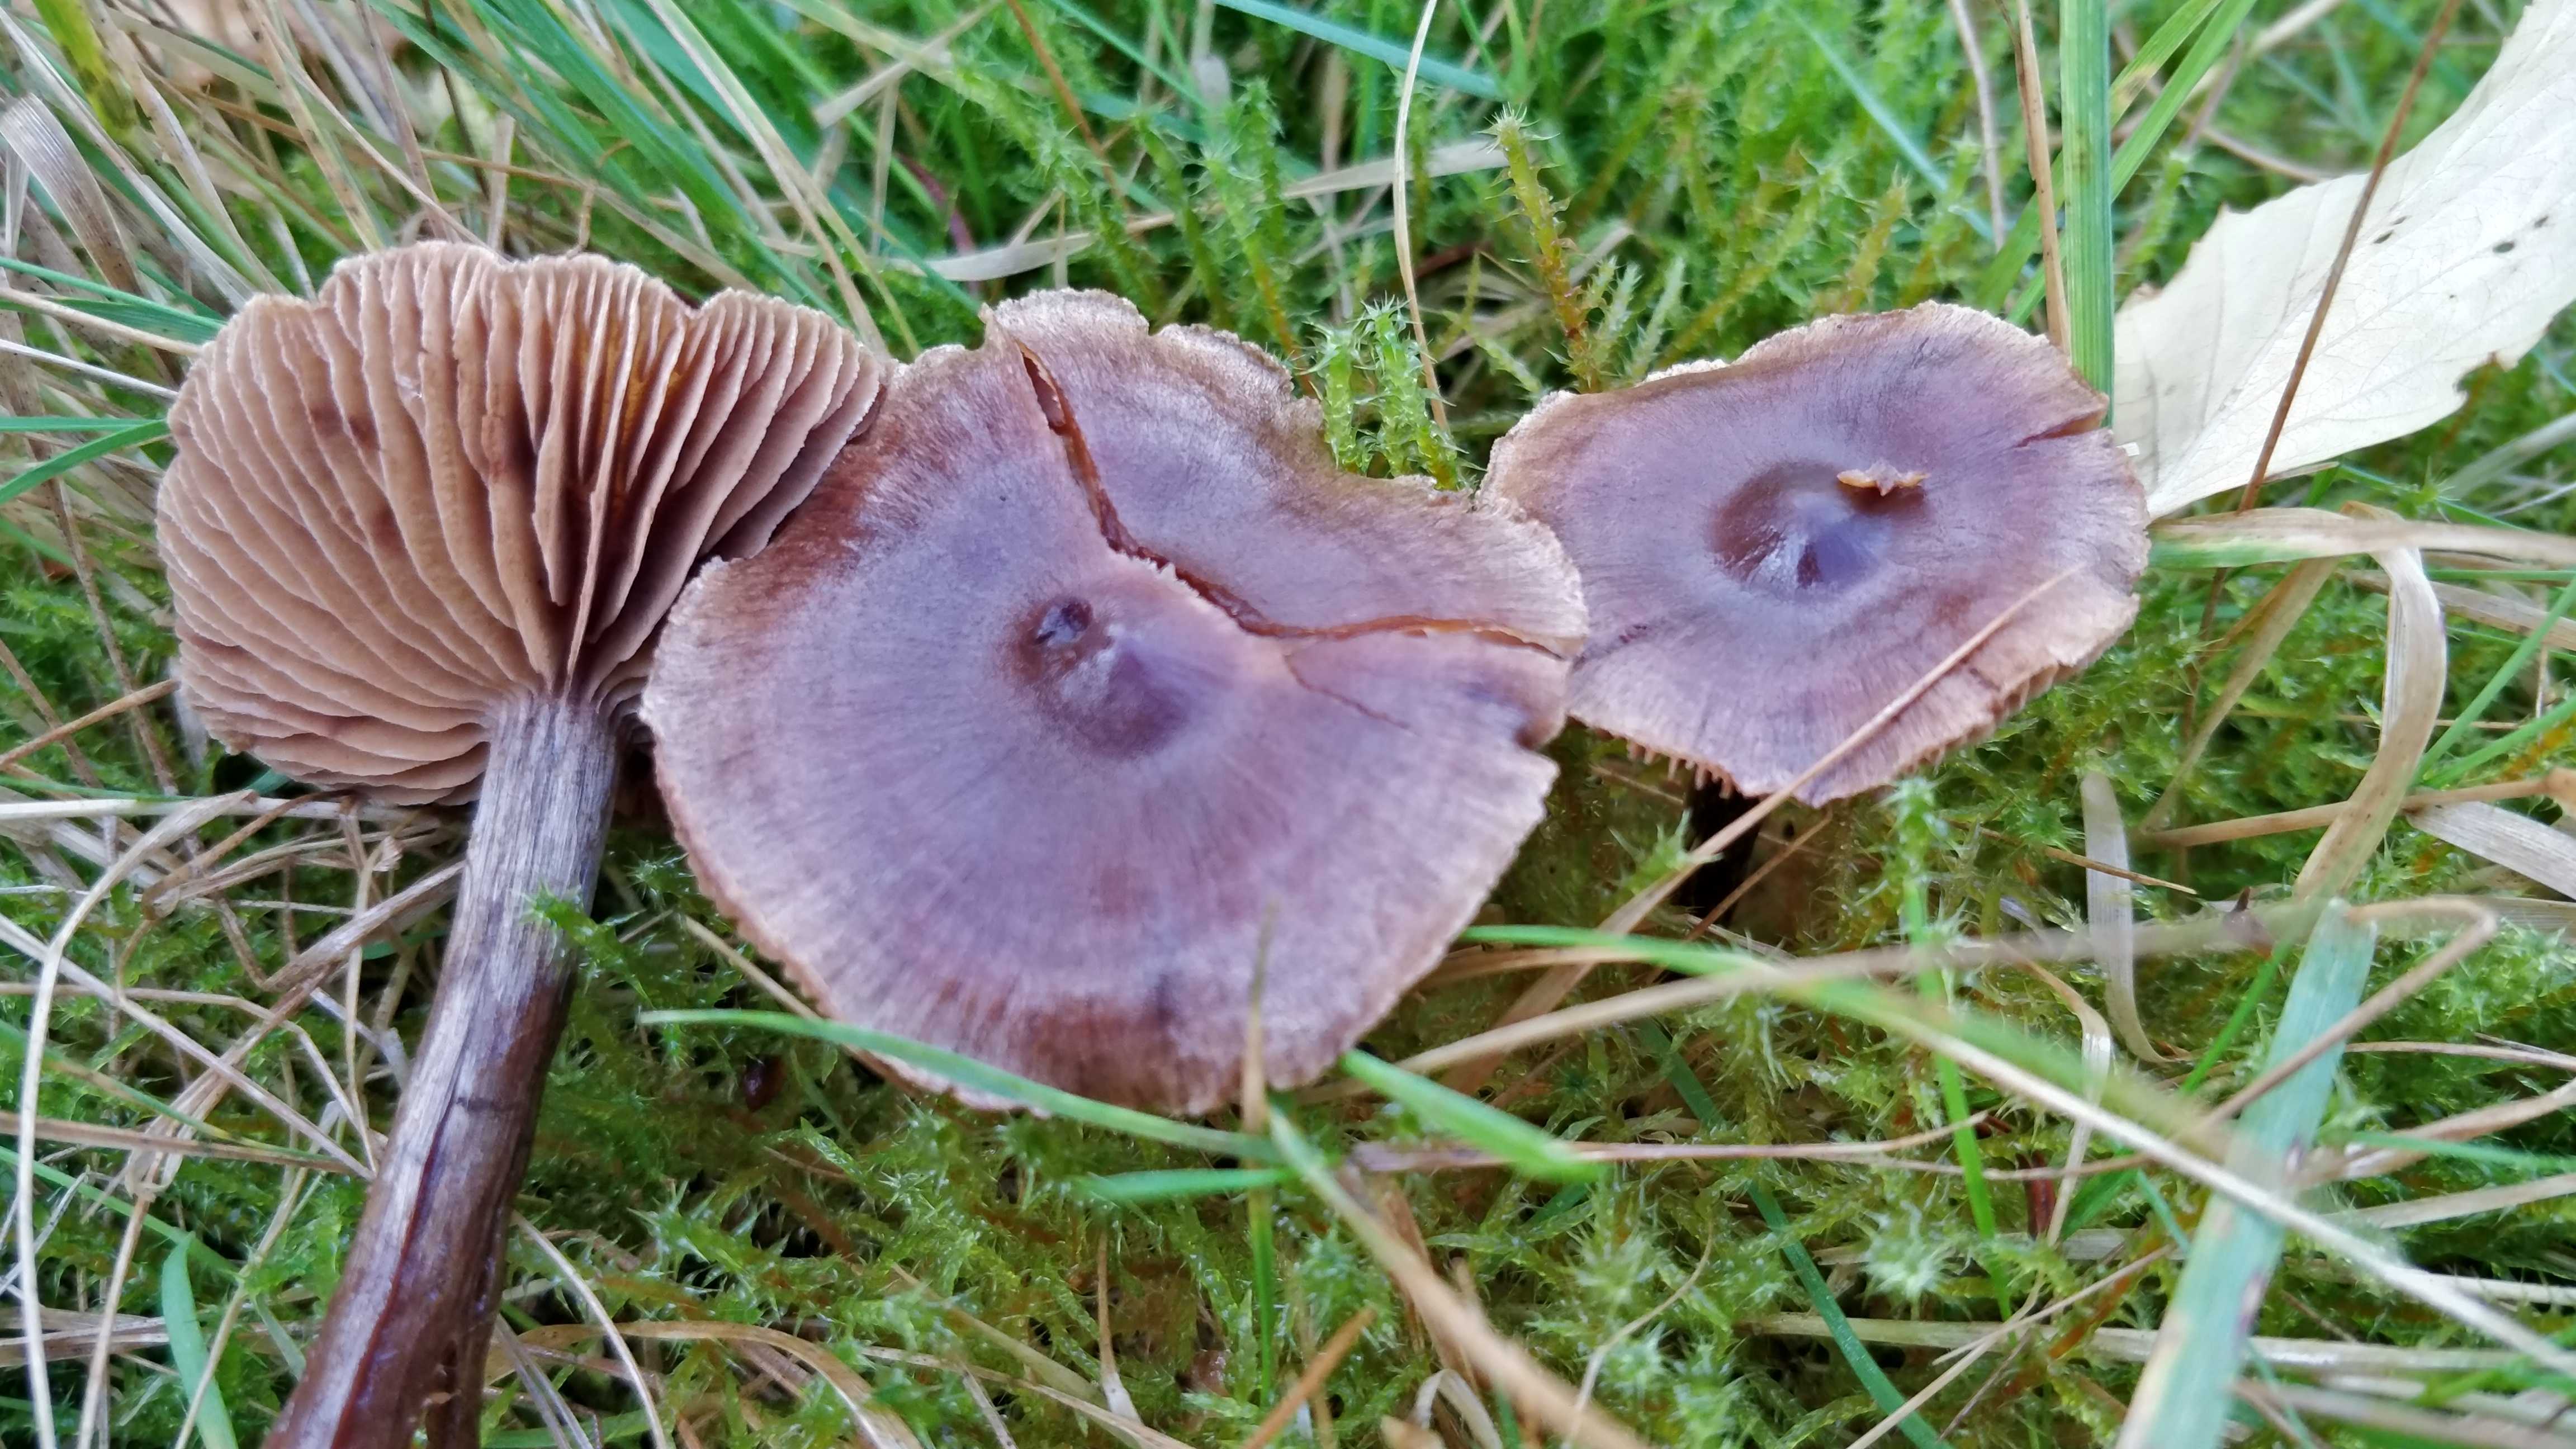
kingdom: Fungi
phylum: Basidiomycota
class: Agaricomycetes
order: Agaricales
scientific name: Agaricales
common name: champignonordenen
